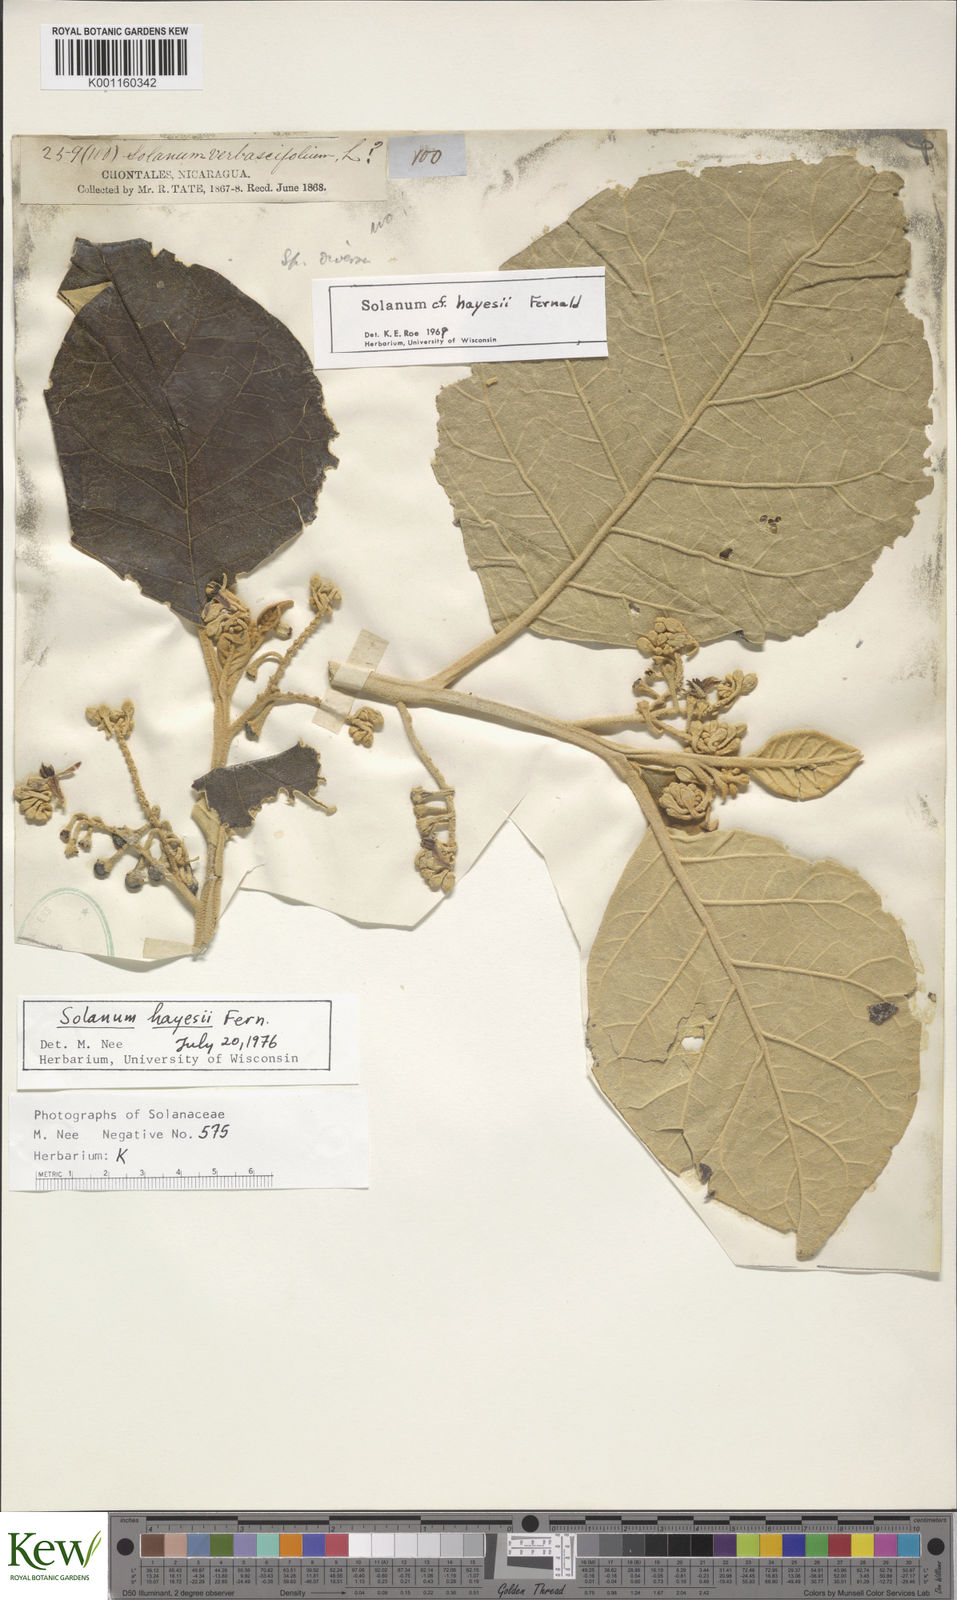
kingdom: Plantae
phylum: Tracheophyta
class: Magnoliopsida
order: Solanales
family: Solanaceae
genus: Solanum
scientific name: Solanum hayesii
